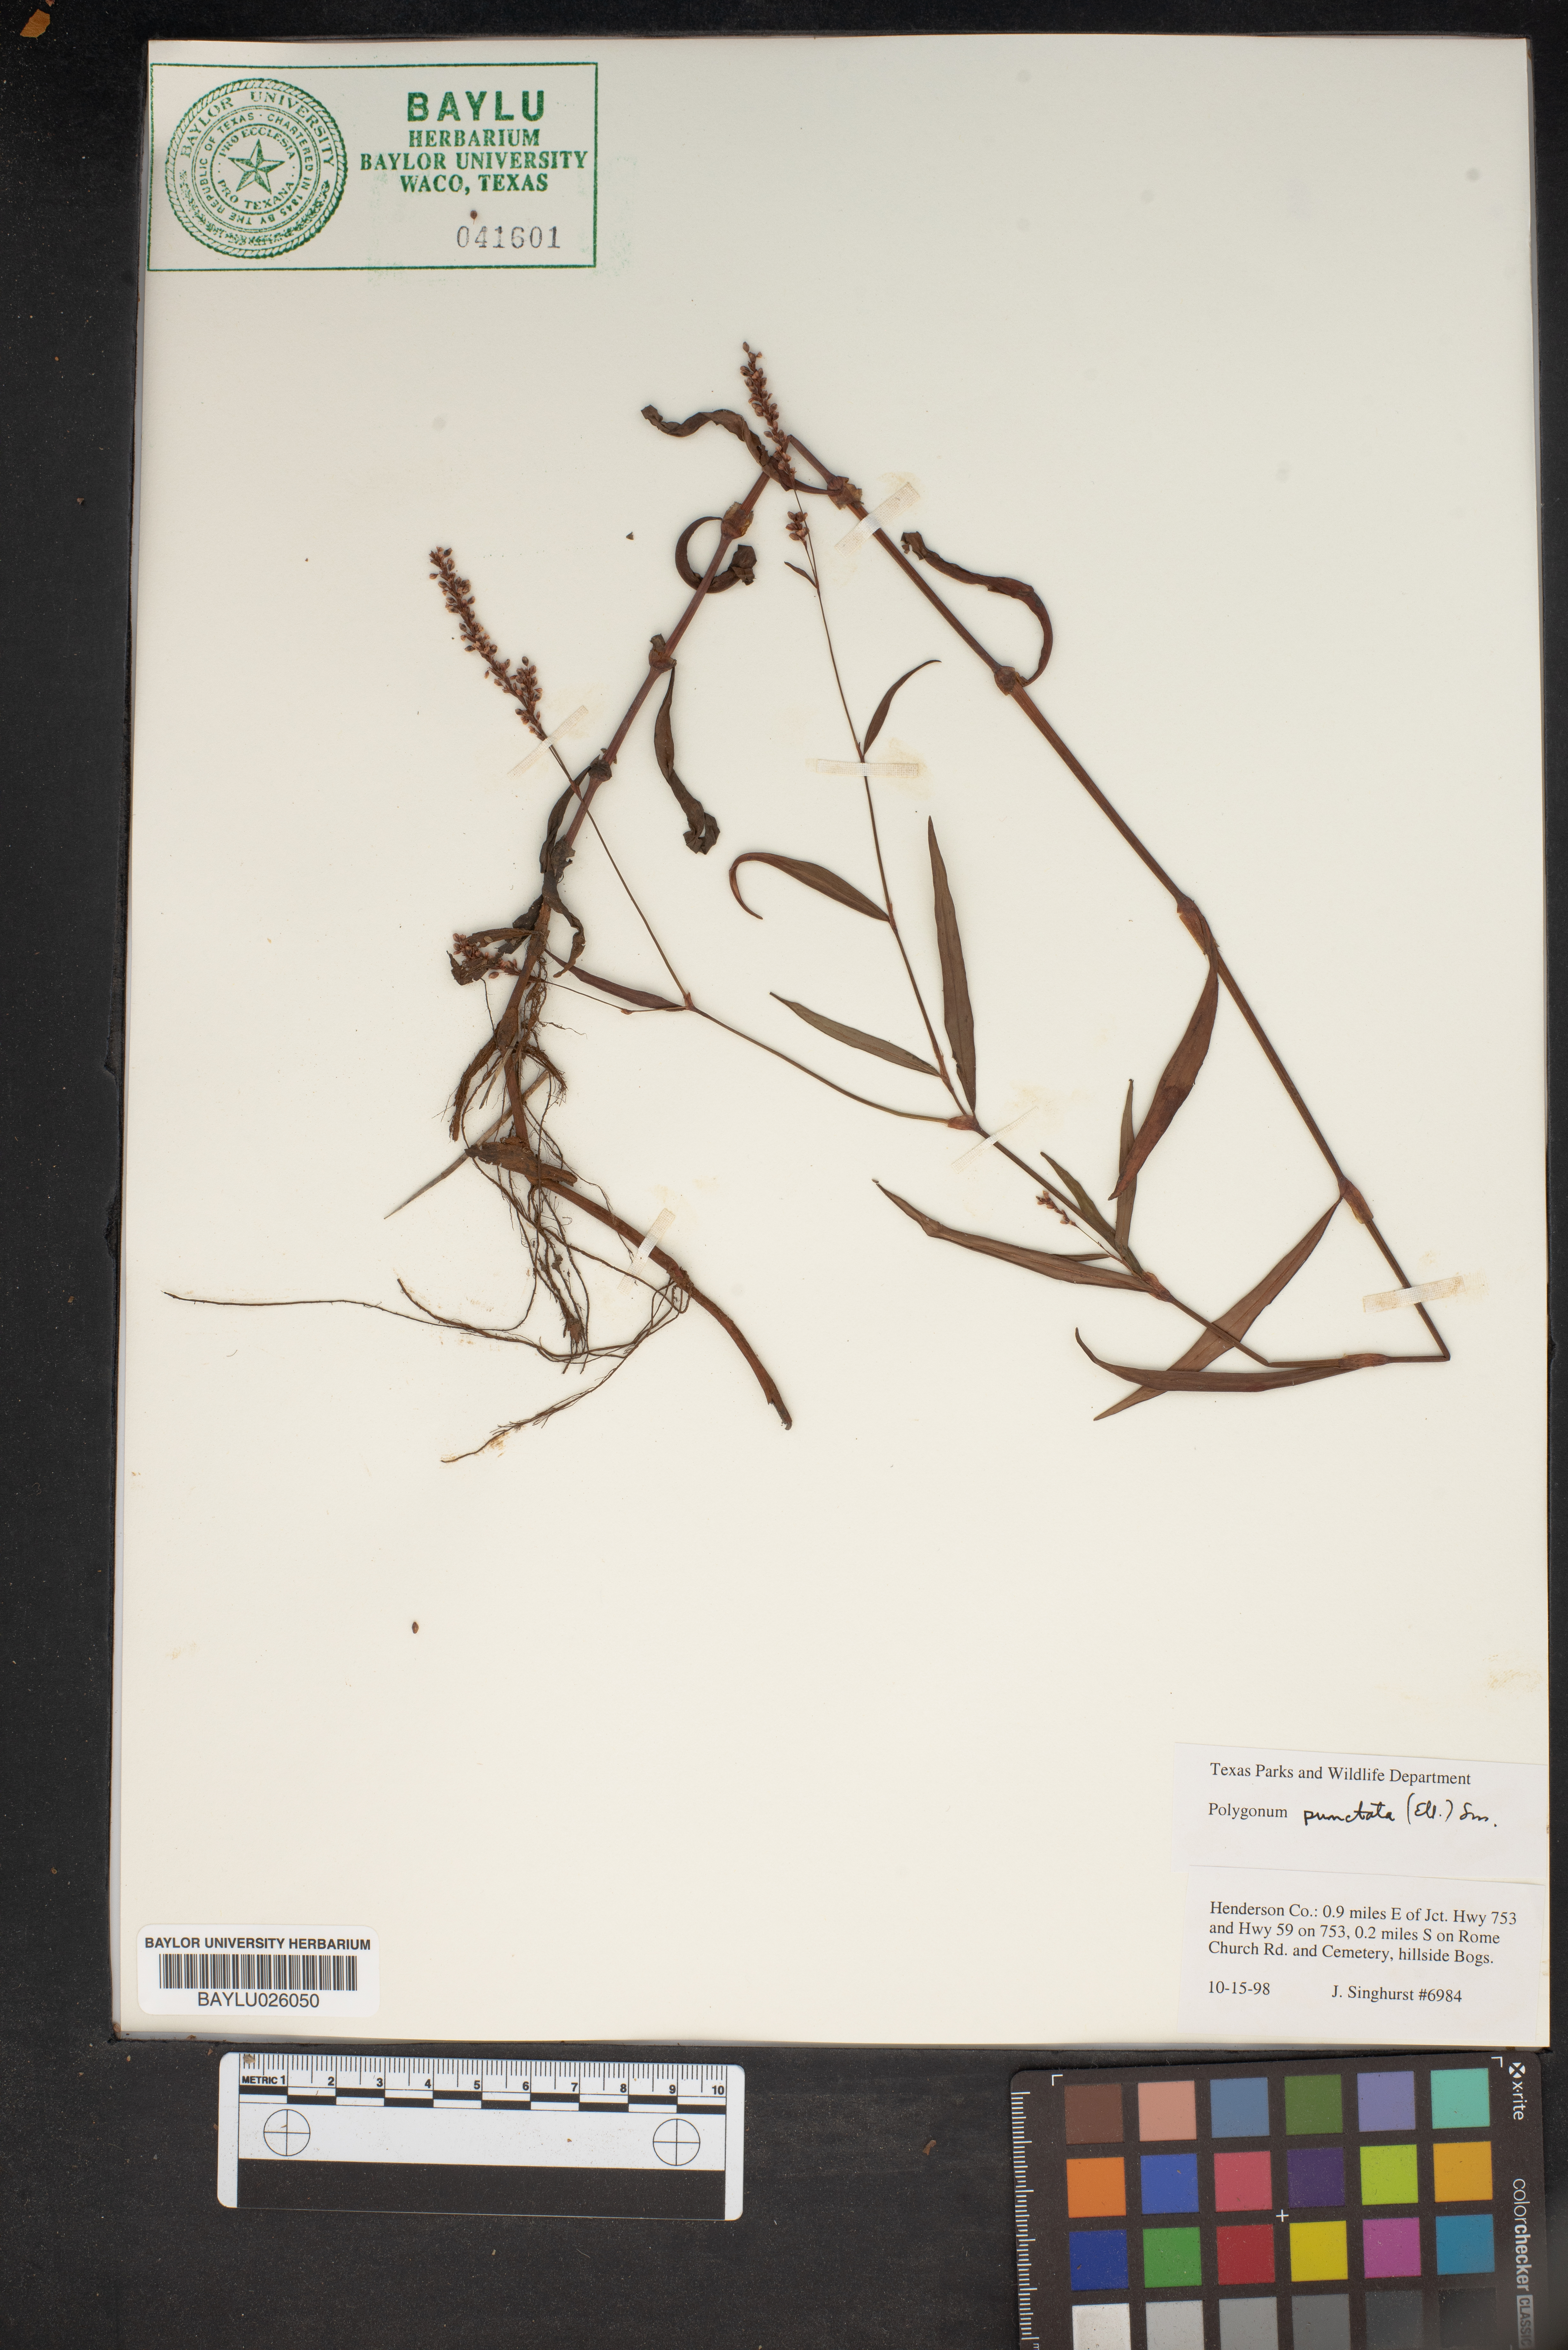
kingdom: Plantae
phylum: Tracheophyta
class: Magnoliopsida
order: Caryophyllales
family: Polygonaceae
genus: Persicaria
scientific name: Persicaria punctata
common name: Dotted smartweed
